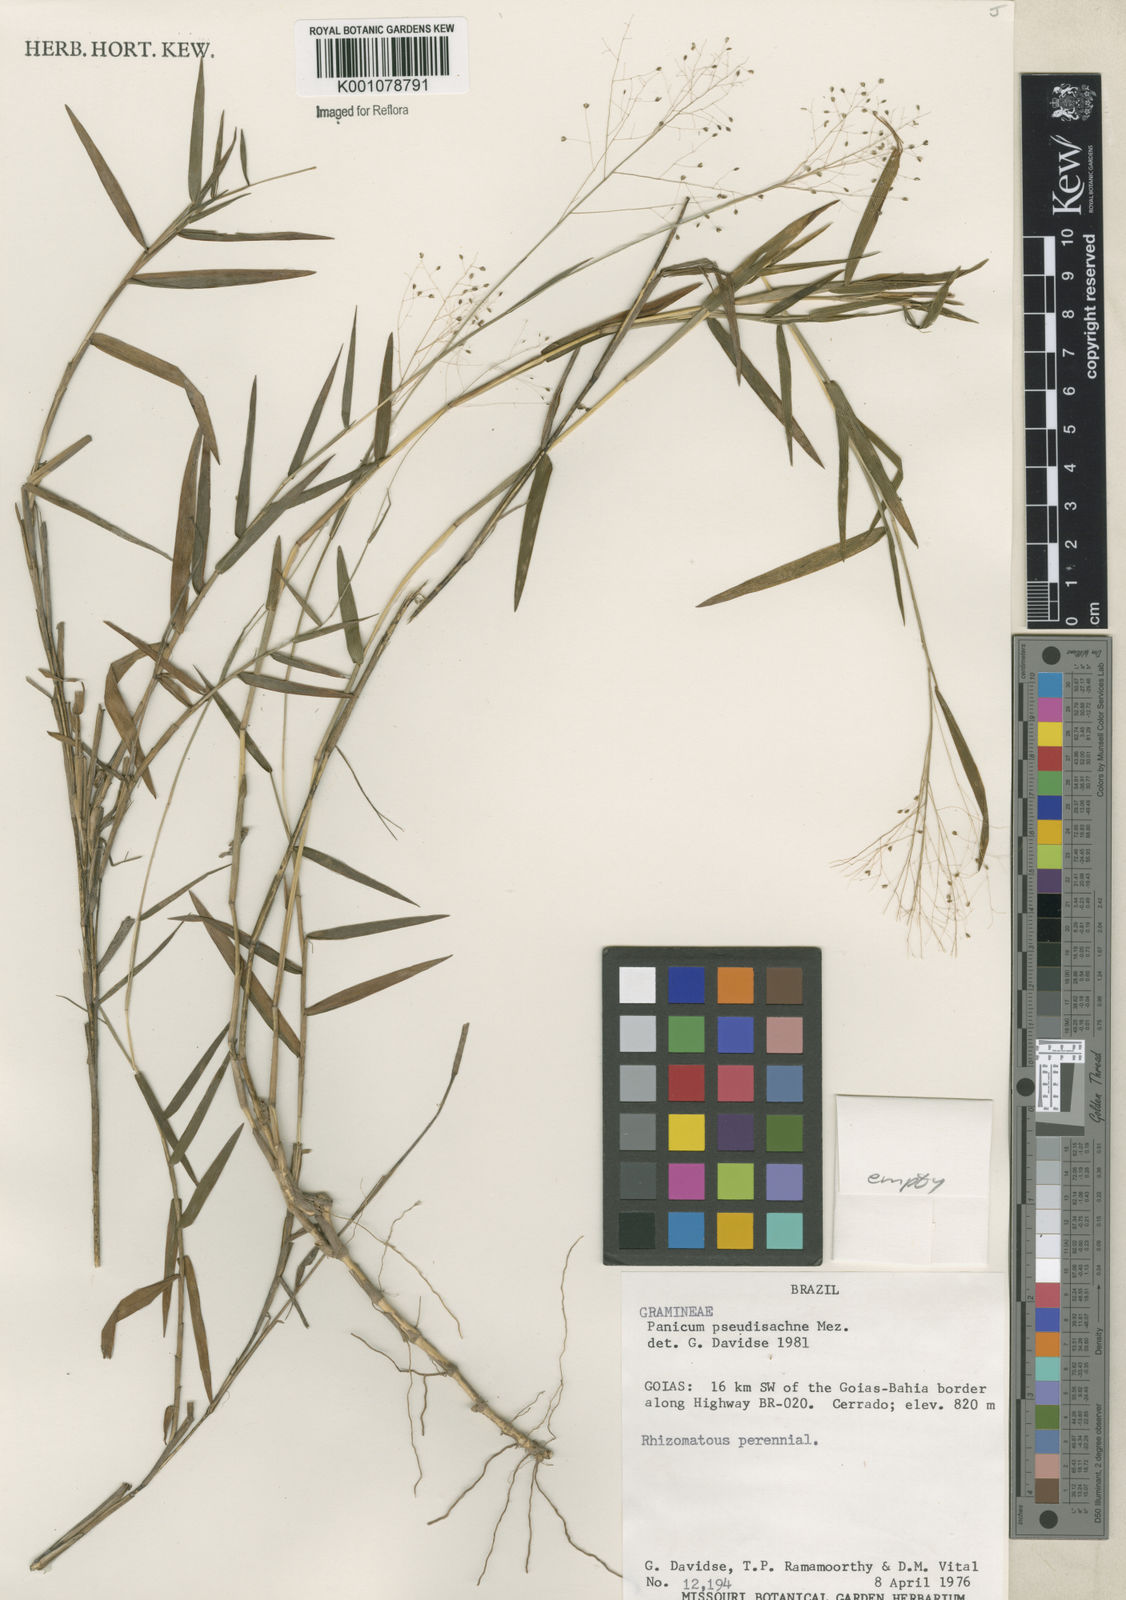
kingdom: Plantae
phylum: Tracheophyta
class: Liliopsida
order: Poales
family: Poaceae
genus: Trichanthecium
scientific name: Trichanthecium pseudisachne
